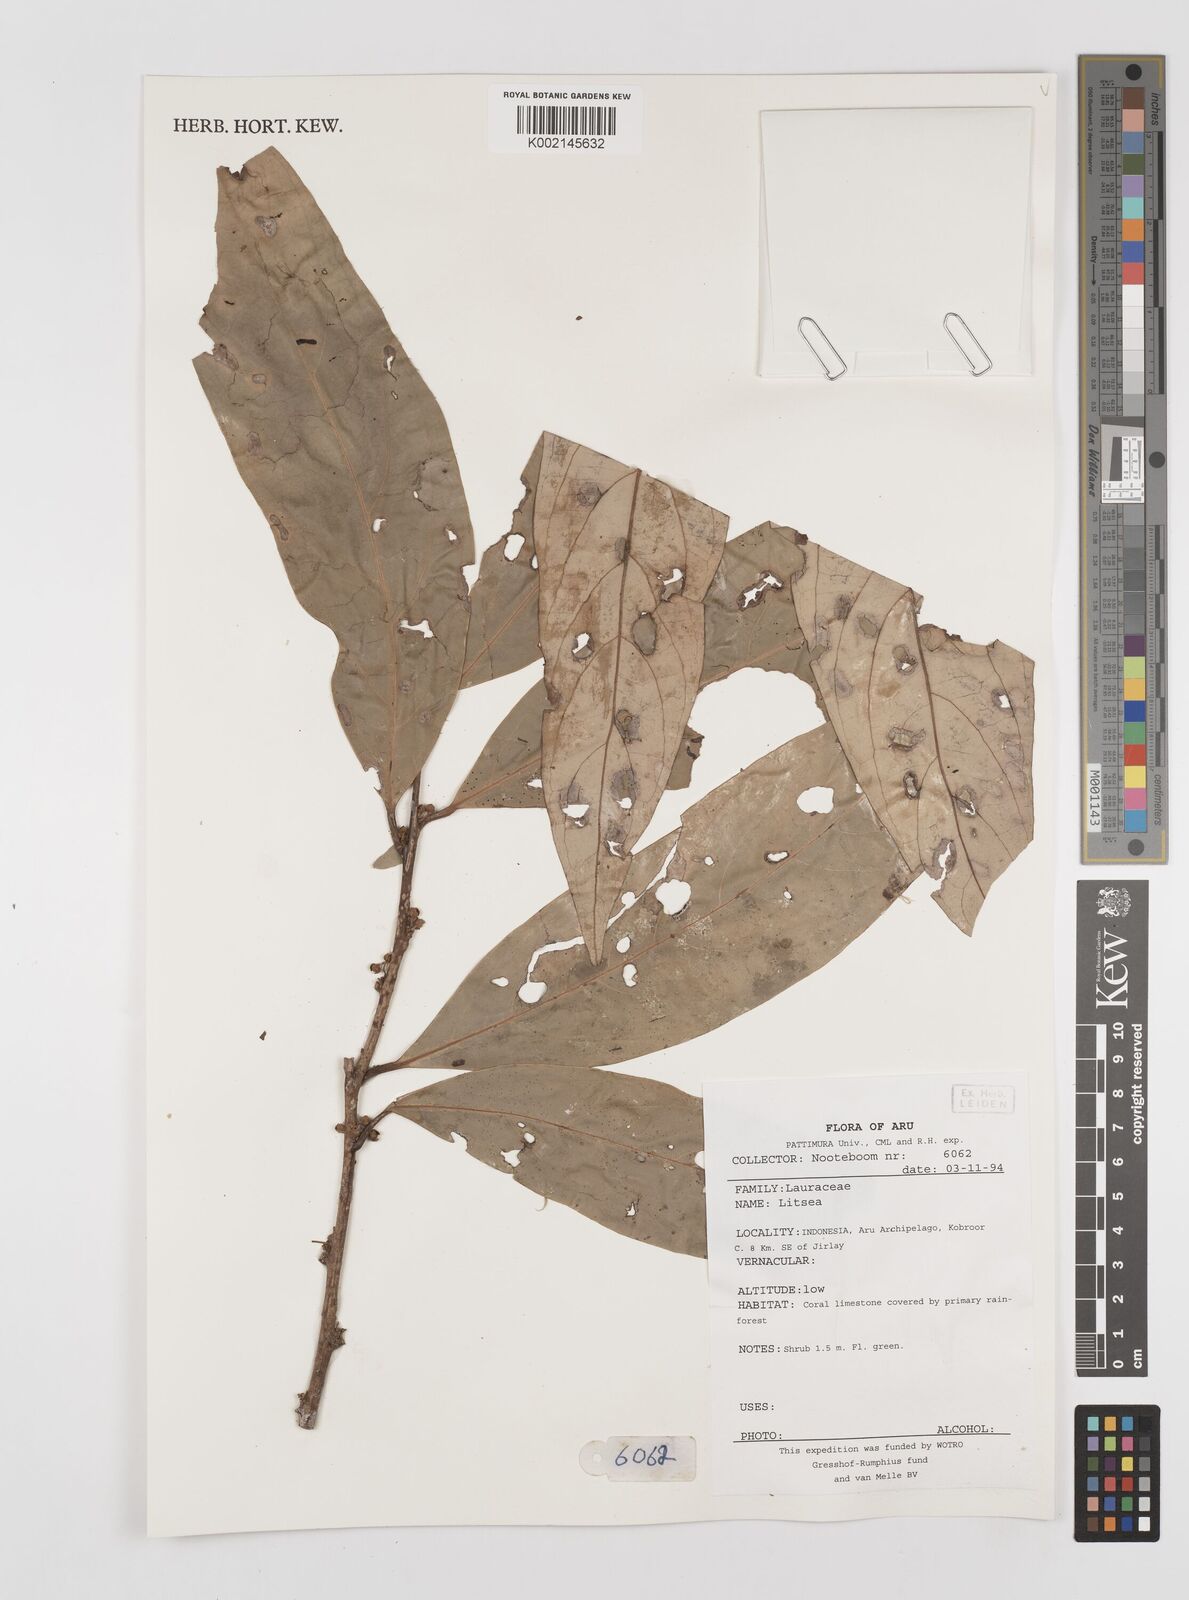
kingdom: Plantae
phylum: Tracheophyta
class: Magnoliopsida
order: Laurales
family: Lauraceae
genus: Litsea
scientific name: Litsea
